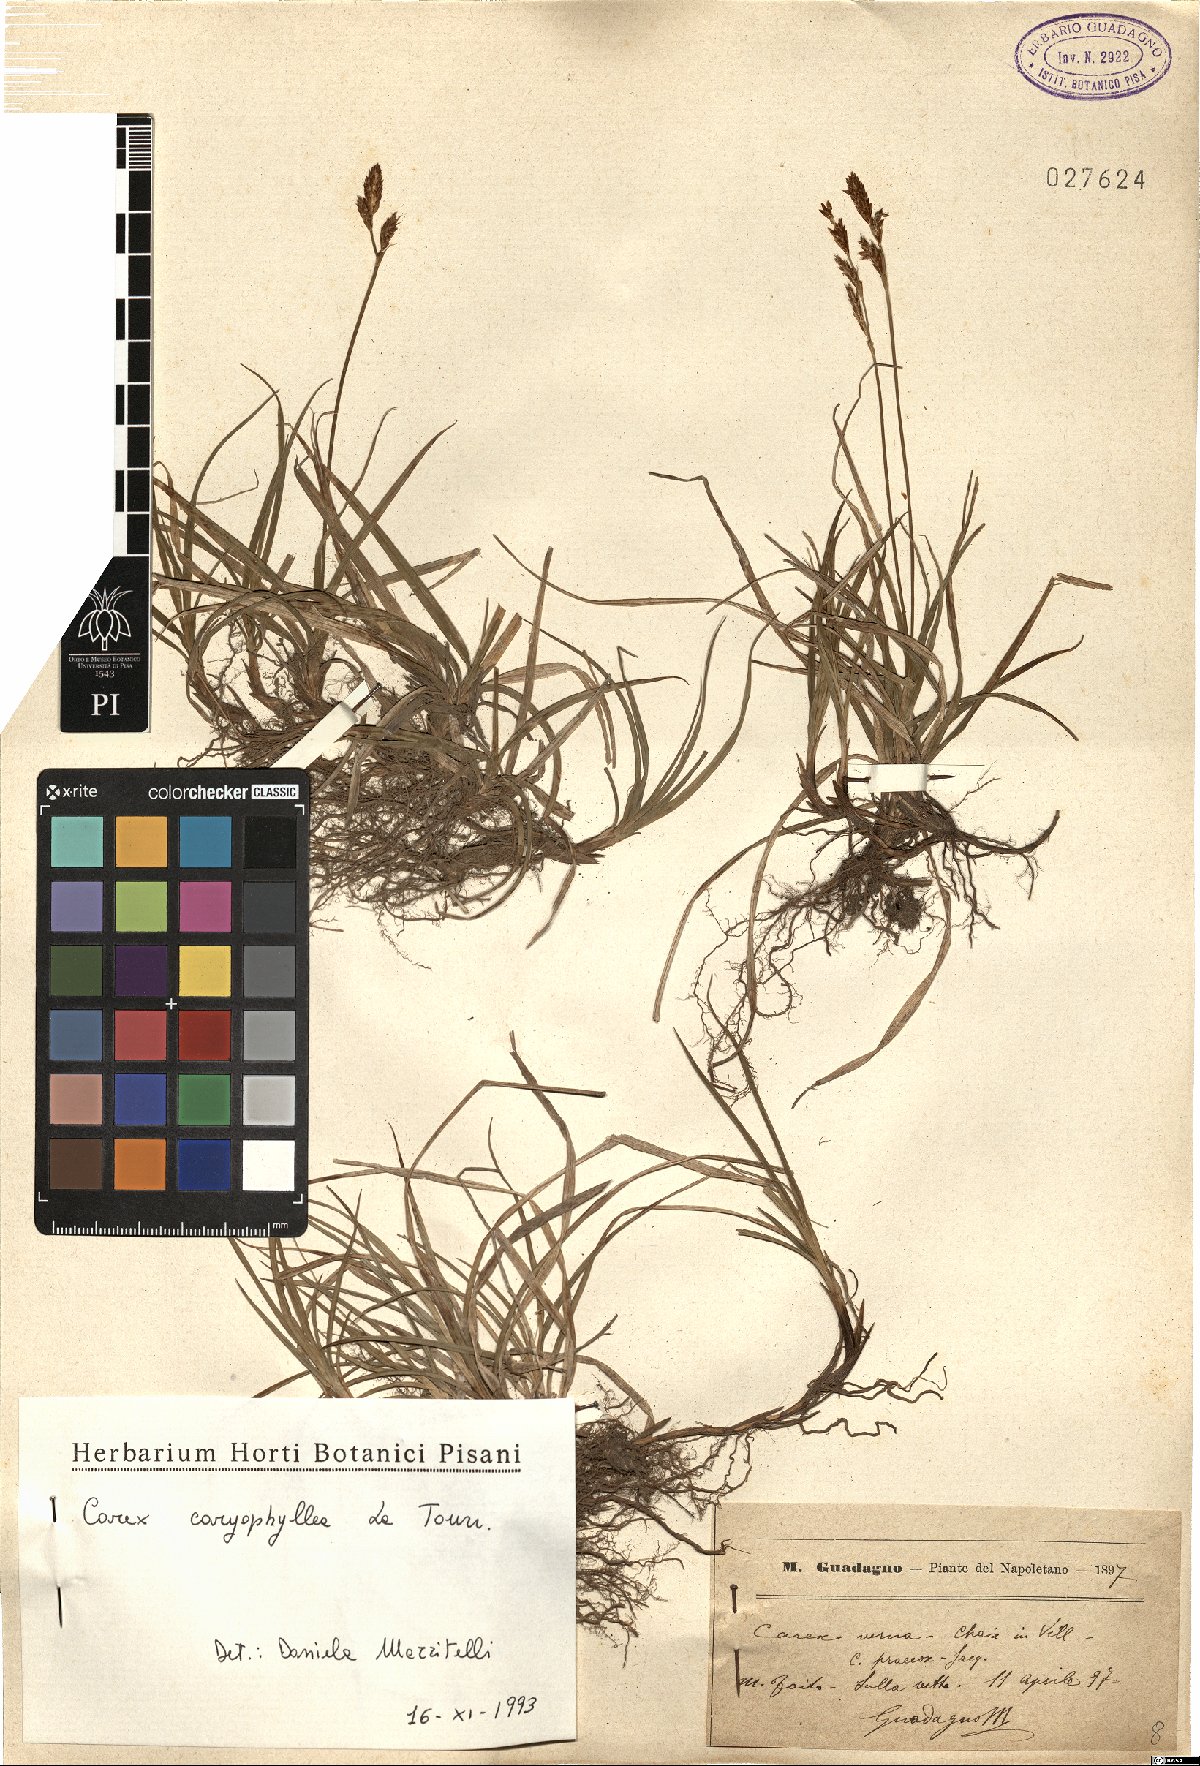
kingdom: Plantae
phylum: Tracheophyta
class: Liliopsida
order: Poales
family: Cyperaceae
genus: Carex
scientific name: Carex caryophyllea
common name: Spring sedge
